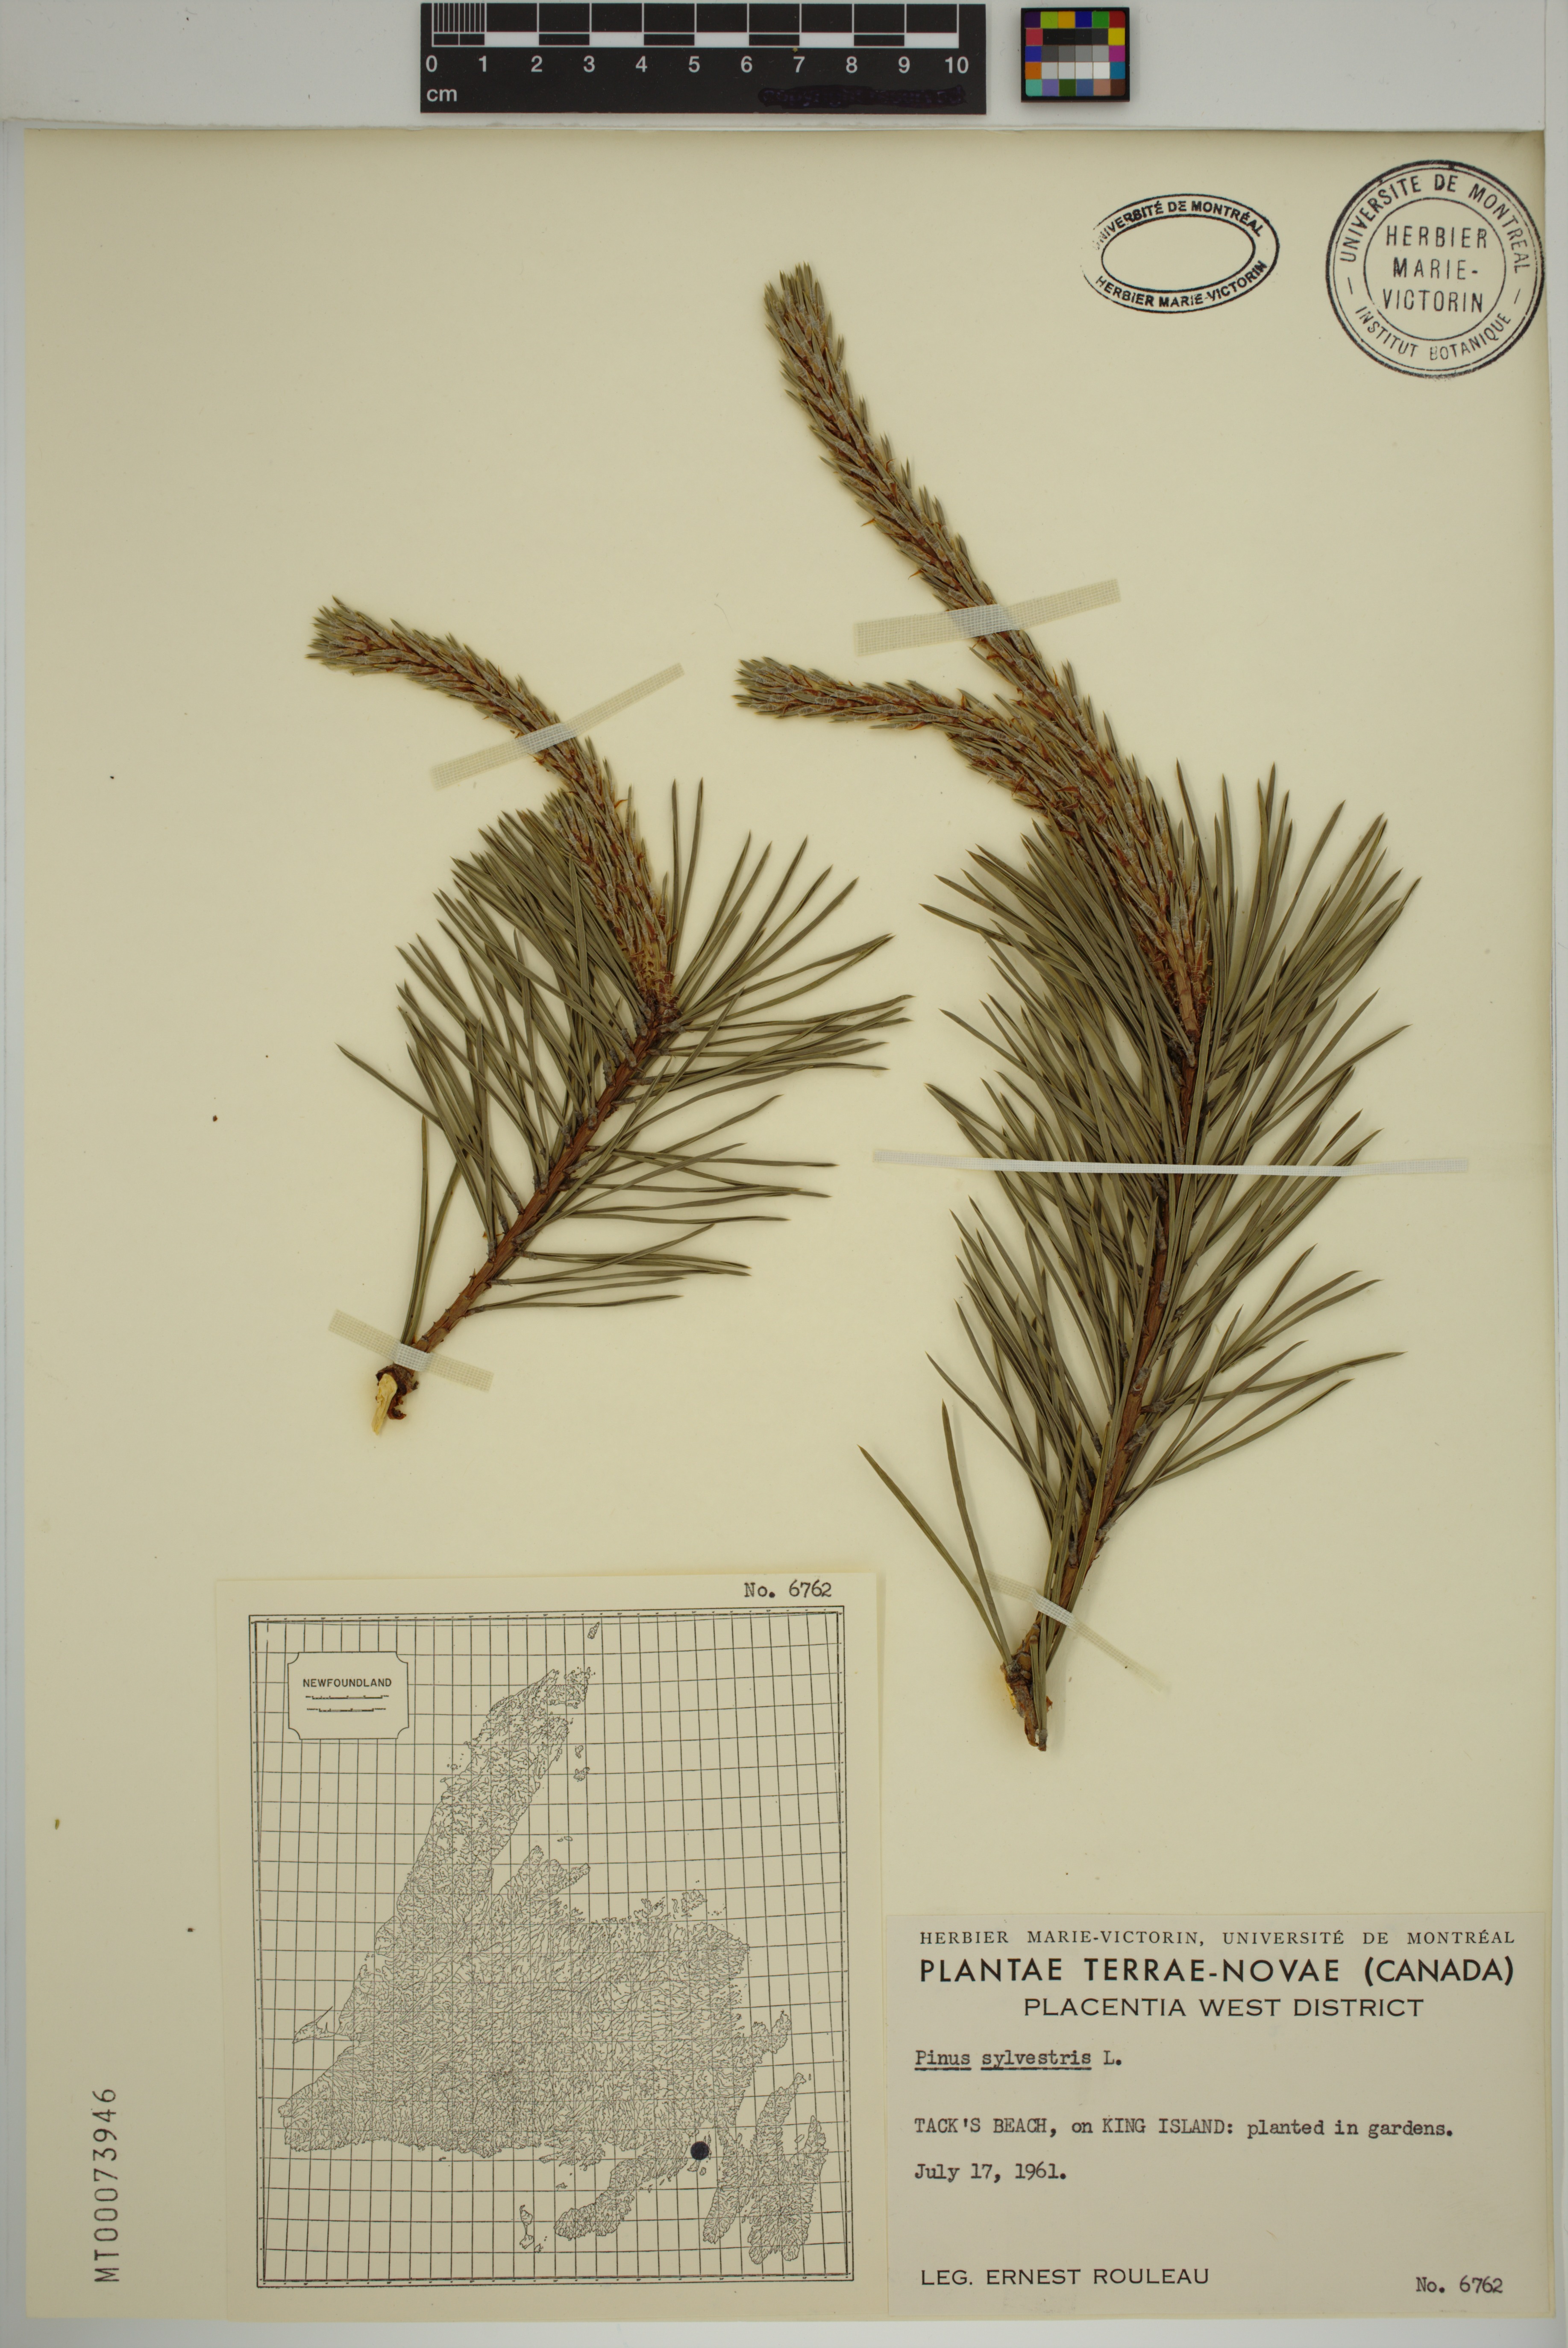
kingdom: Plantae
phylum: Tracheophyta
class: Pinopsida
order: Pinales
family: Pinaceae
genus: Pinus
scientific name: Pinus sylvestris
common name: Scots pine
